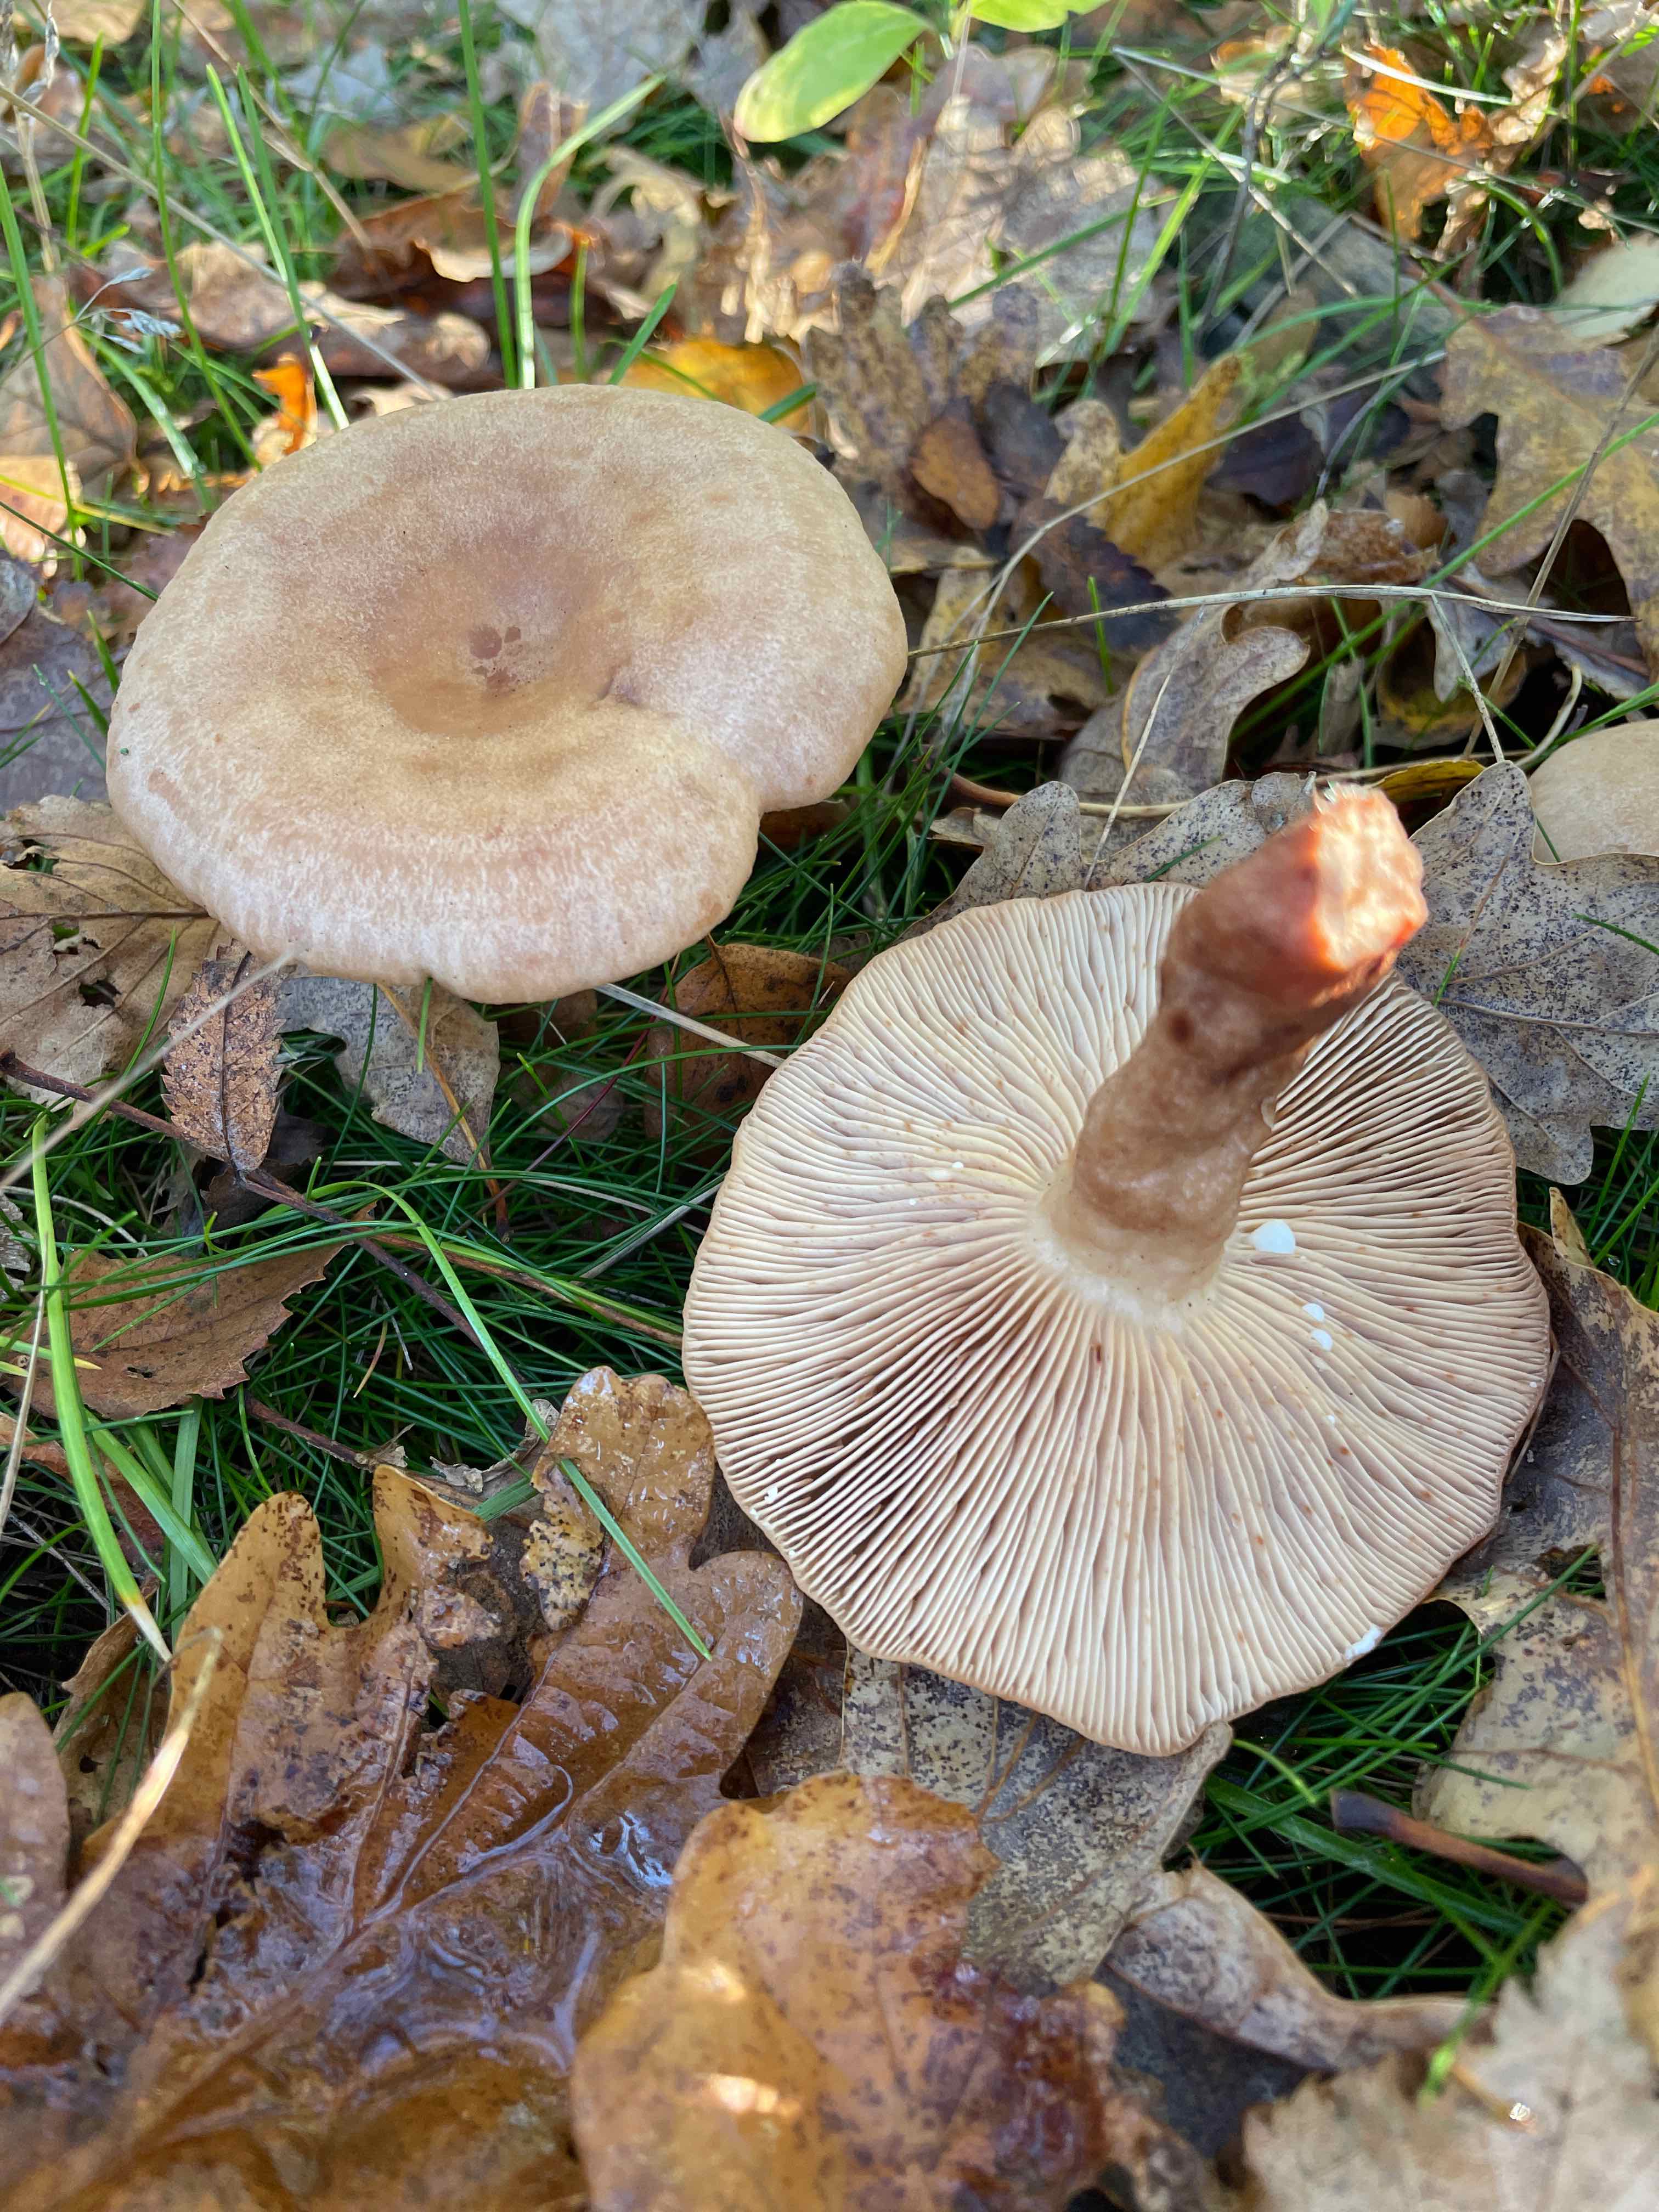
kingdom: Fungi
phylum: Basidiomycota
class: Agaricomycetes
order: Russulales
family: Russulaceae
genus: Lactarius
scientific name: Lactarius quietus
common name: ege-mælkehat
